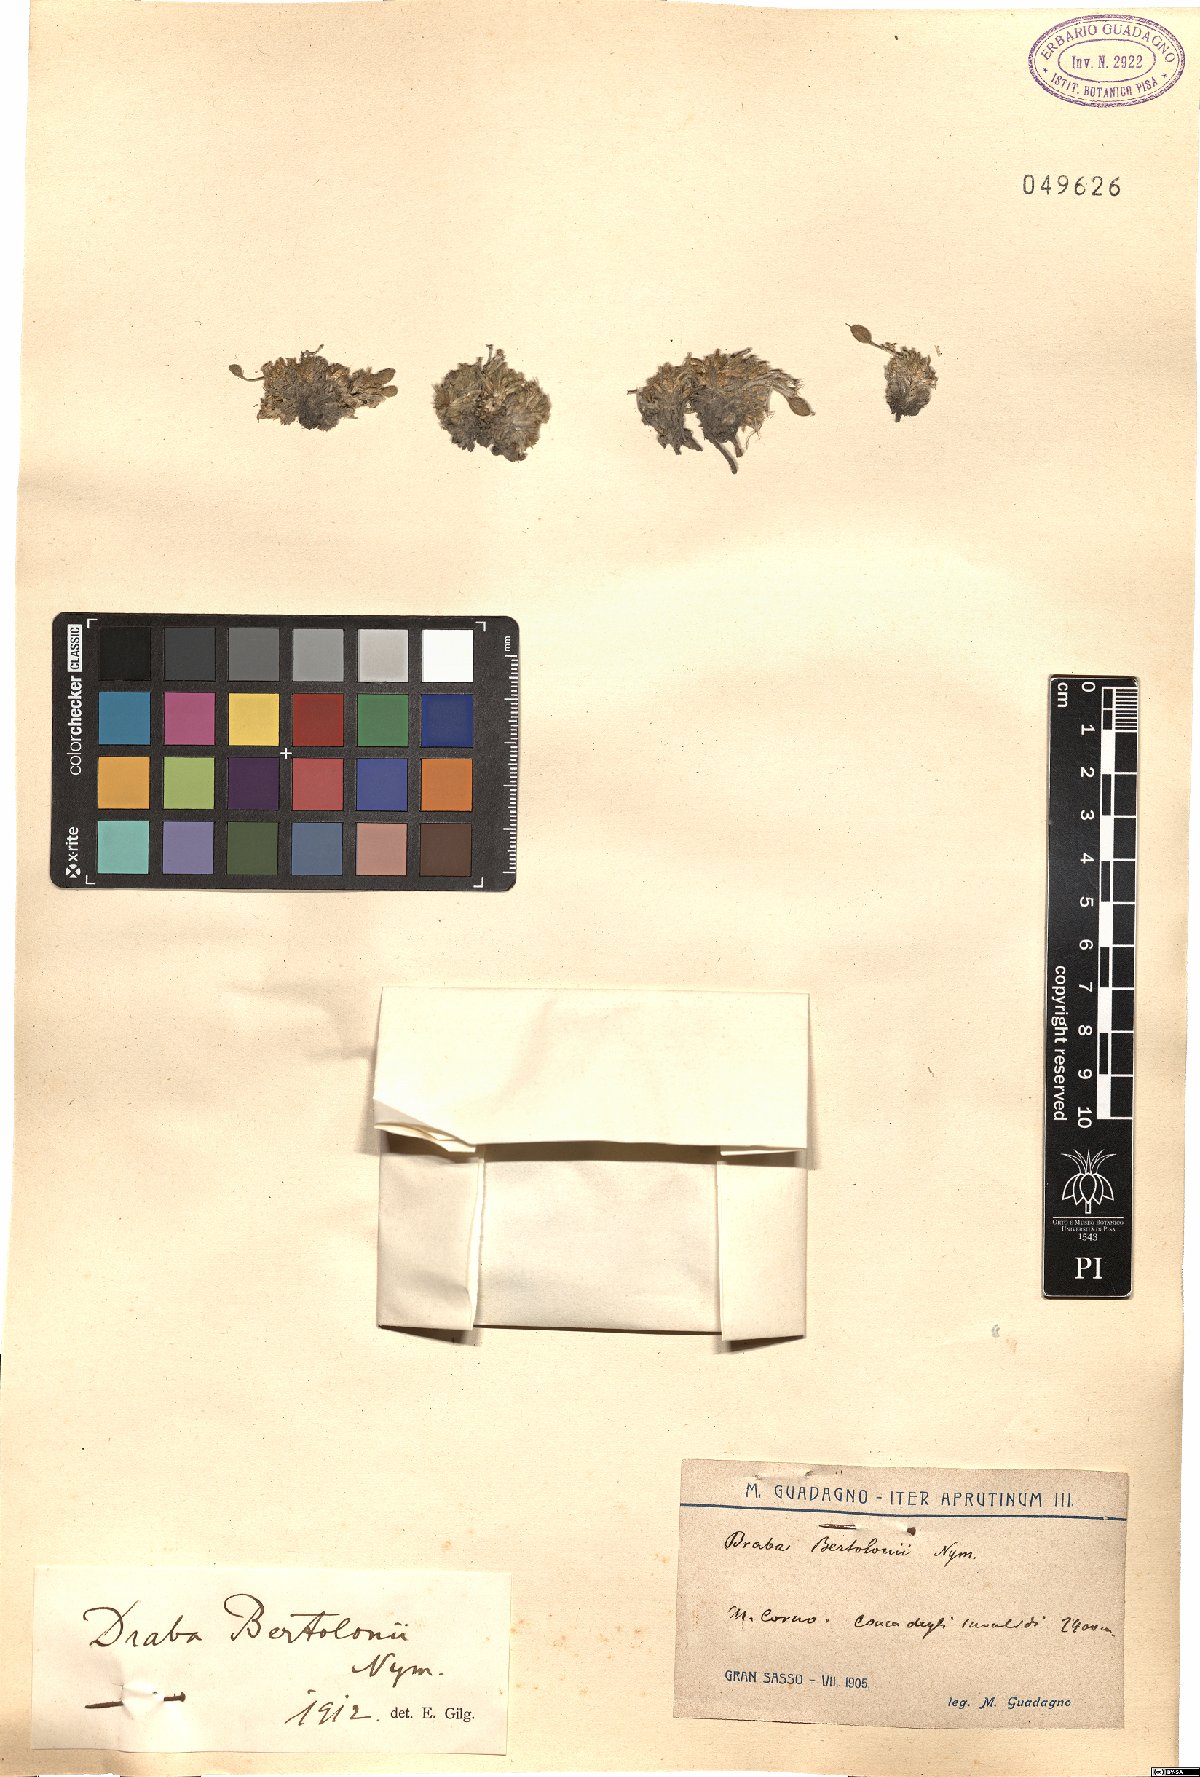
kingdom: Plantae
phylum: Tracheophyta
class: Magnoliopsida
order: Brassicales
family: Brassicaceae
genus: Draba
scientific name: Draba aspera
